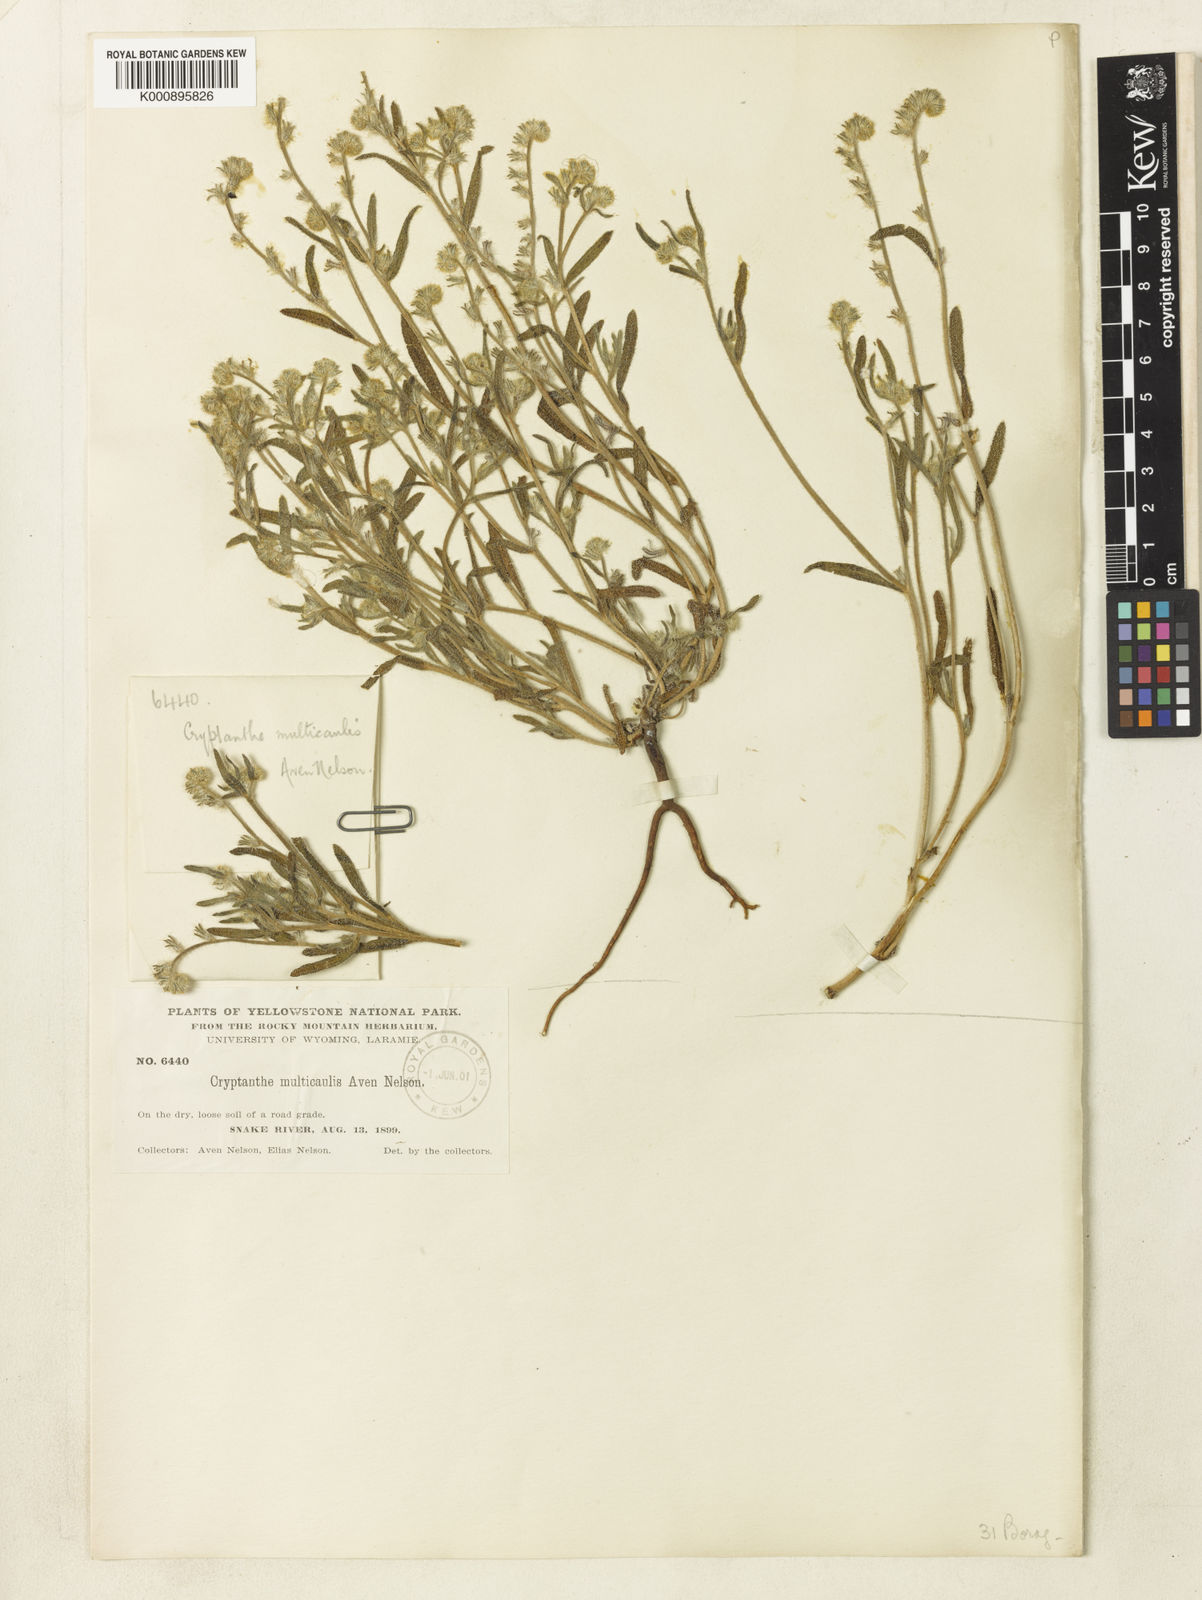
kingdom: Plantae
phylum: Tracheophyta
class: Magnoliopsida
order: Boraginales
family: Boraginaceae
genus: Cryptantha
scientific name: Cryptantha ambigua
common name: Wilke's cryptantha
